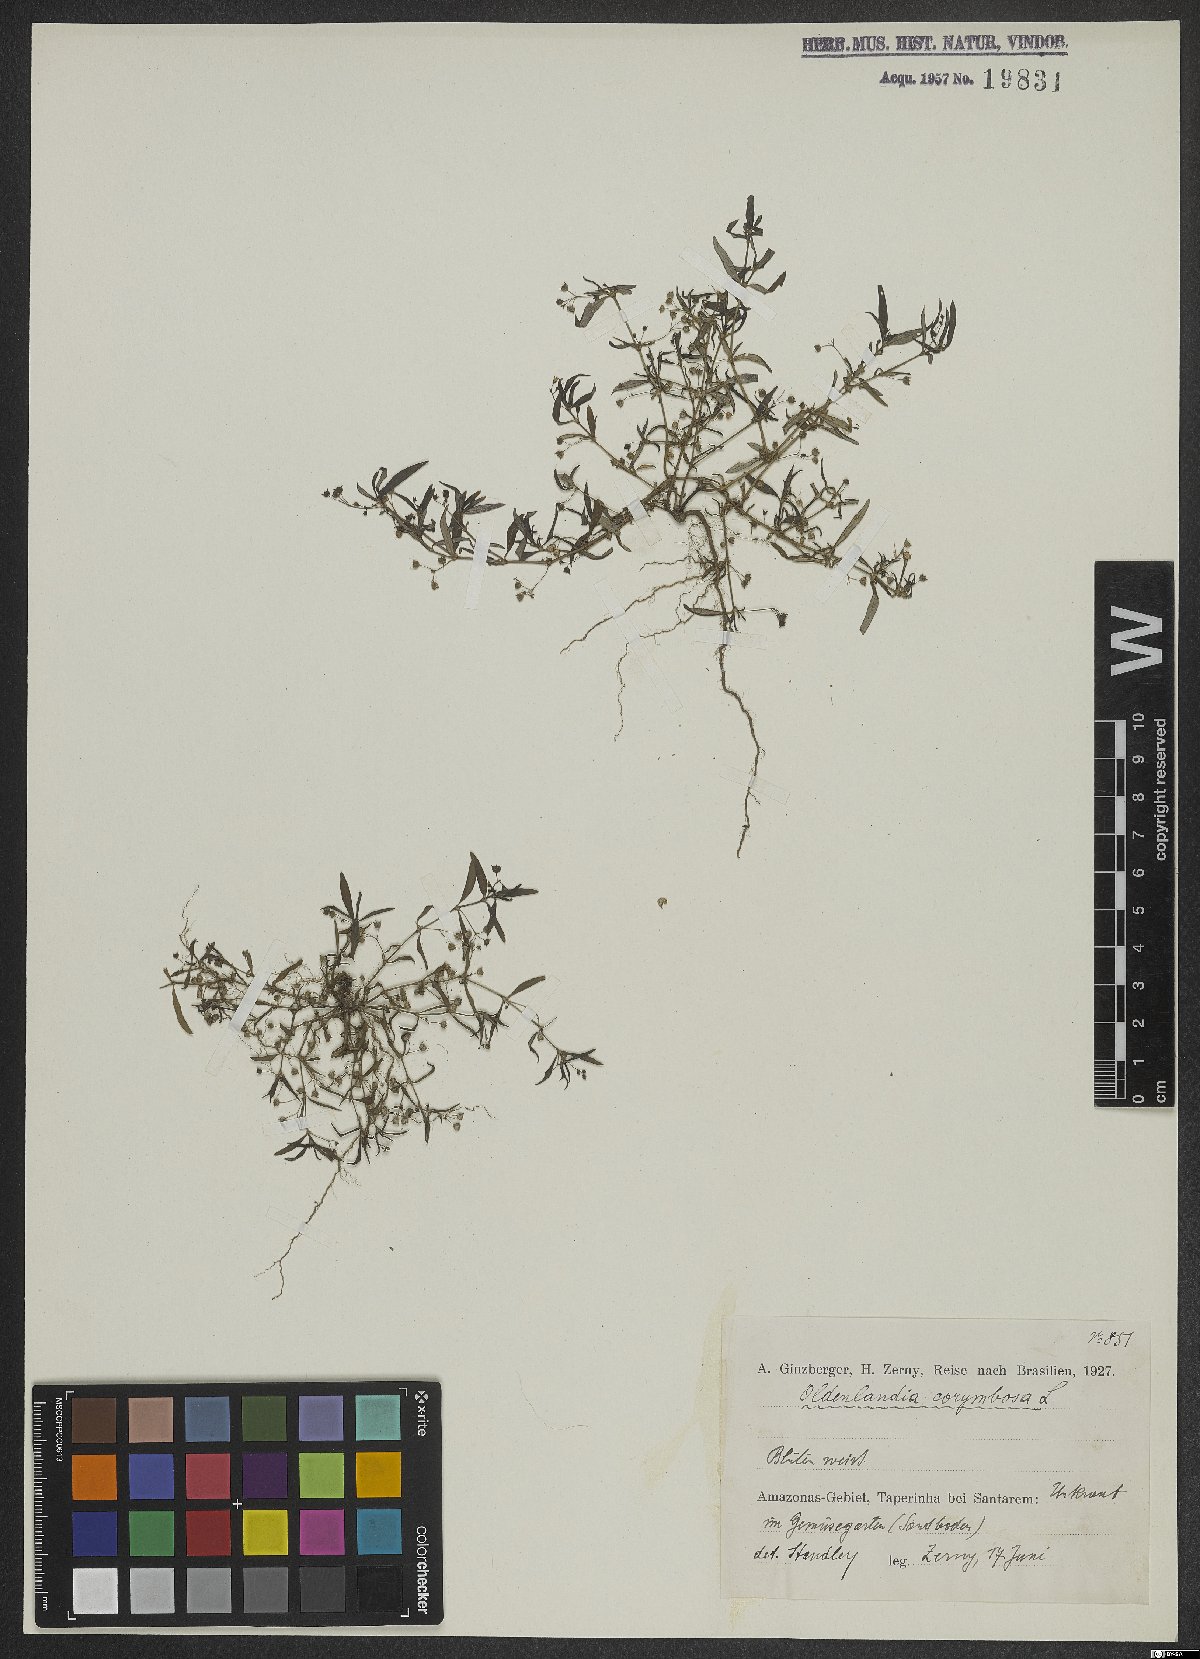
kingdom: Plantae
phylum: Tracheophyta
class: Magnoliopsida
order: Gentianales
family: Rubiaceae
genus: Oldenlandia
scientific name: Oldenlandia corymbosa
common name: Flat-top mille graines
